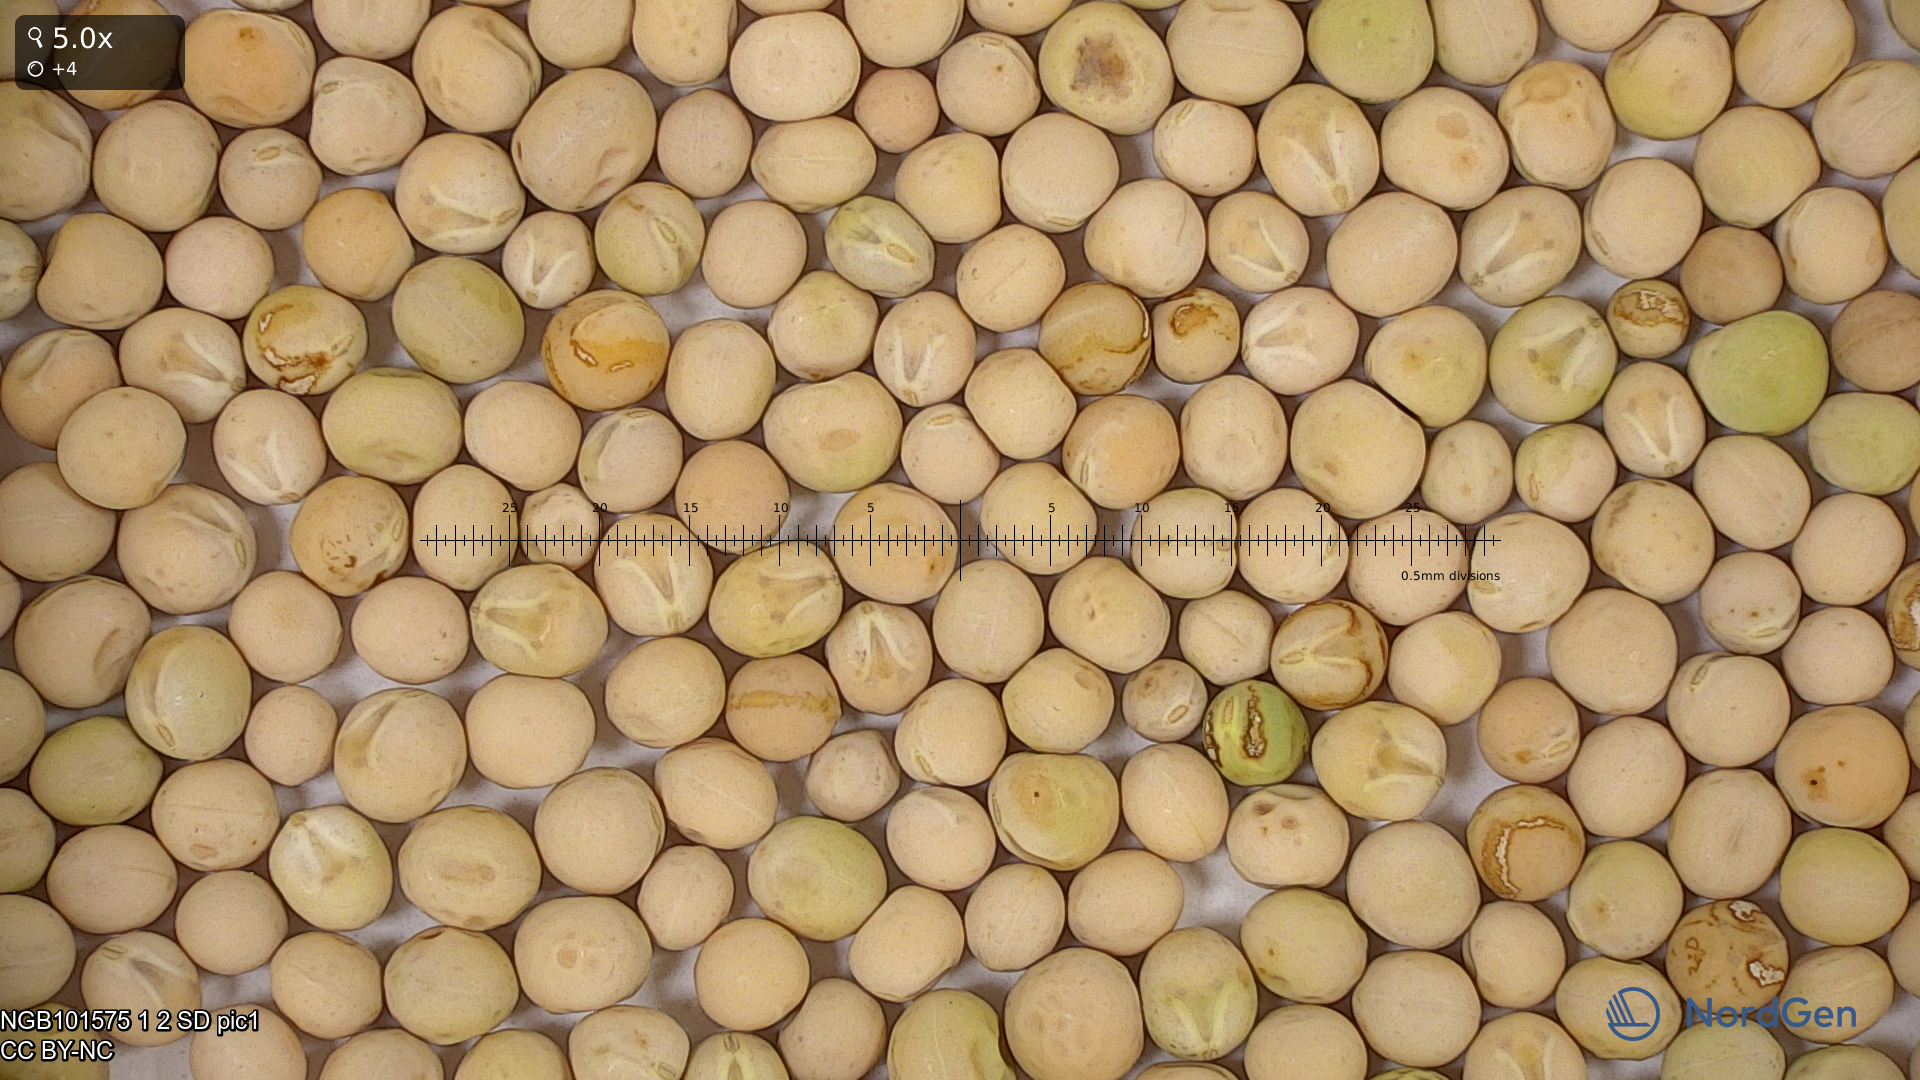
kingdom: Plantae
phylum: Tracheophyta
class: Magnoliopsida
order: Fabales
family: Fabaceae
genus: Lathyrus
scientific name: Lathyrus oleraceus
